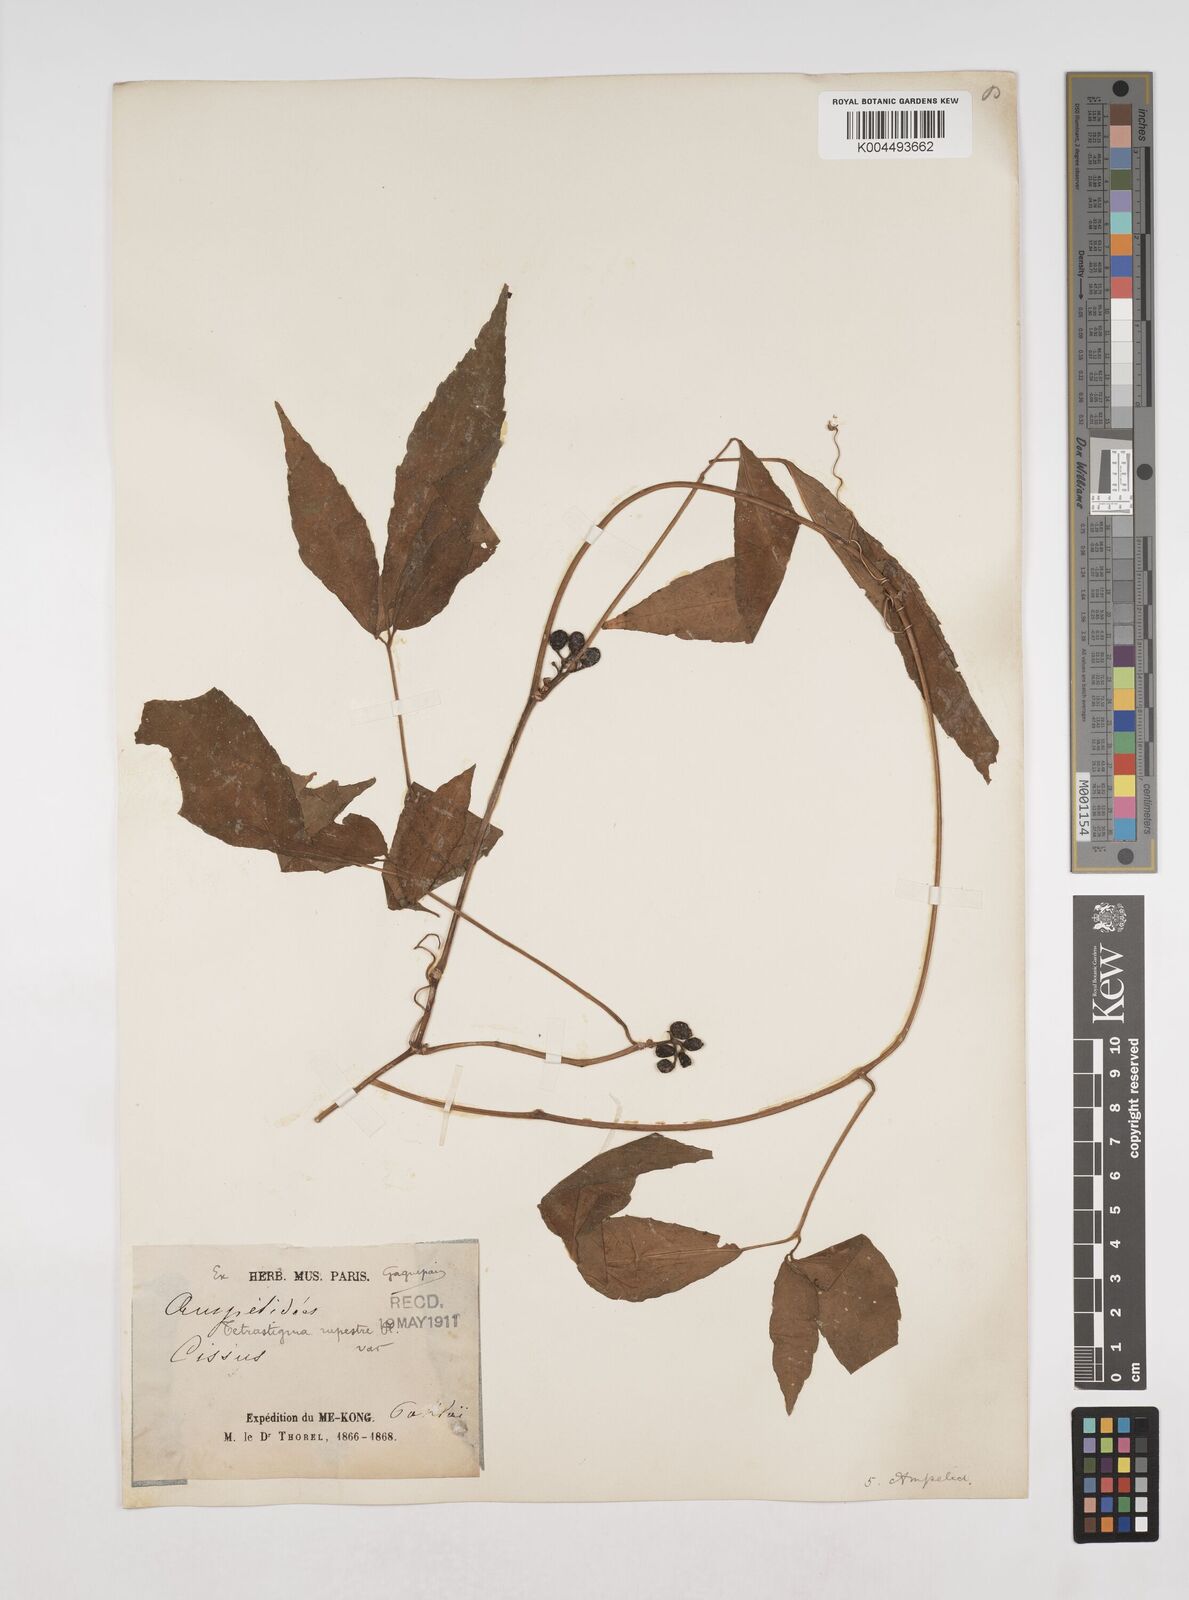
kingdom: Plantae
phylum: Tracheophyta
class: Magnoliopsida
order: Vitales
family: Vitaceae
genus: Tetrastigma
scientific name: Tetrastigma angustifolium
